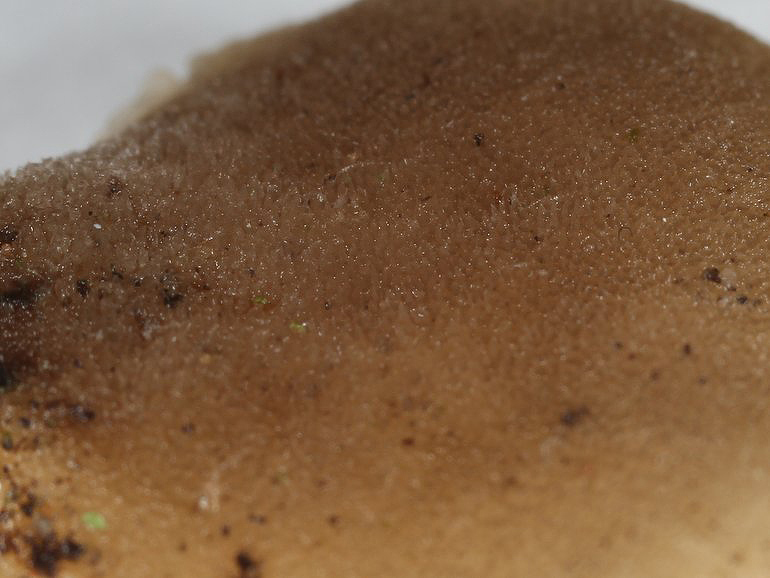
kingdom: Fungi
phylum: Basidiomycota
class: Agaricomycetes
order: Agaricales
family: Pleurotaceae
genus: Hohenbuehelia
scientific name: Hohenbuehelia mastrucata
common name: skællet filthat
